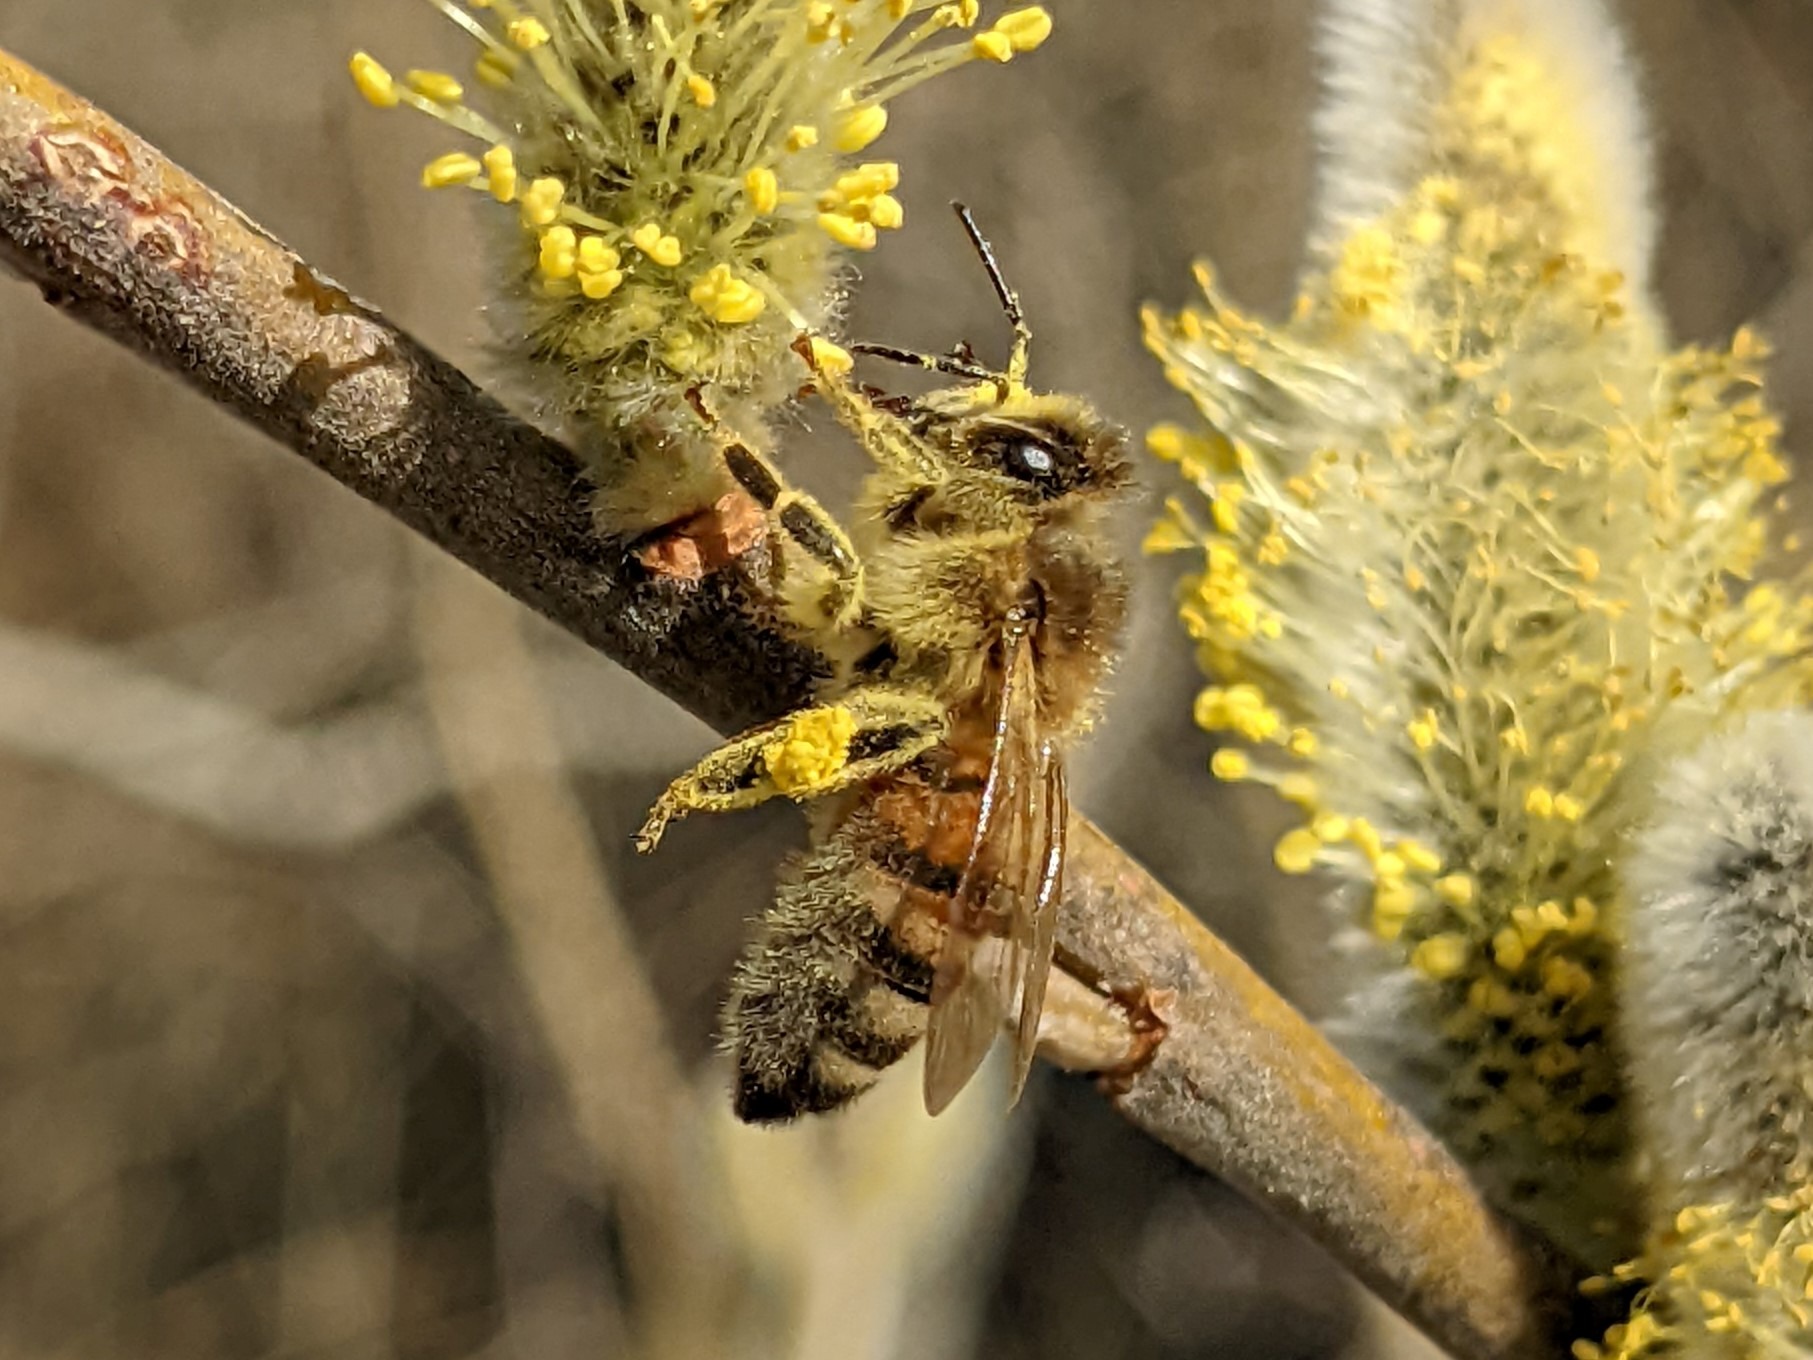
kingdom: Animalia
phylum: Arthropoda
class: Insecta
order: Hymenoptera
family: Apidae
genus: Apis
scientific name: Apis mellifera
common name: Honningbi
